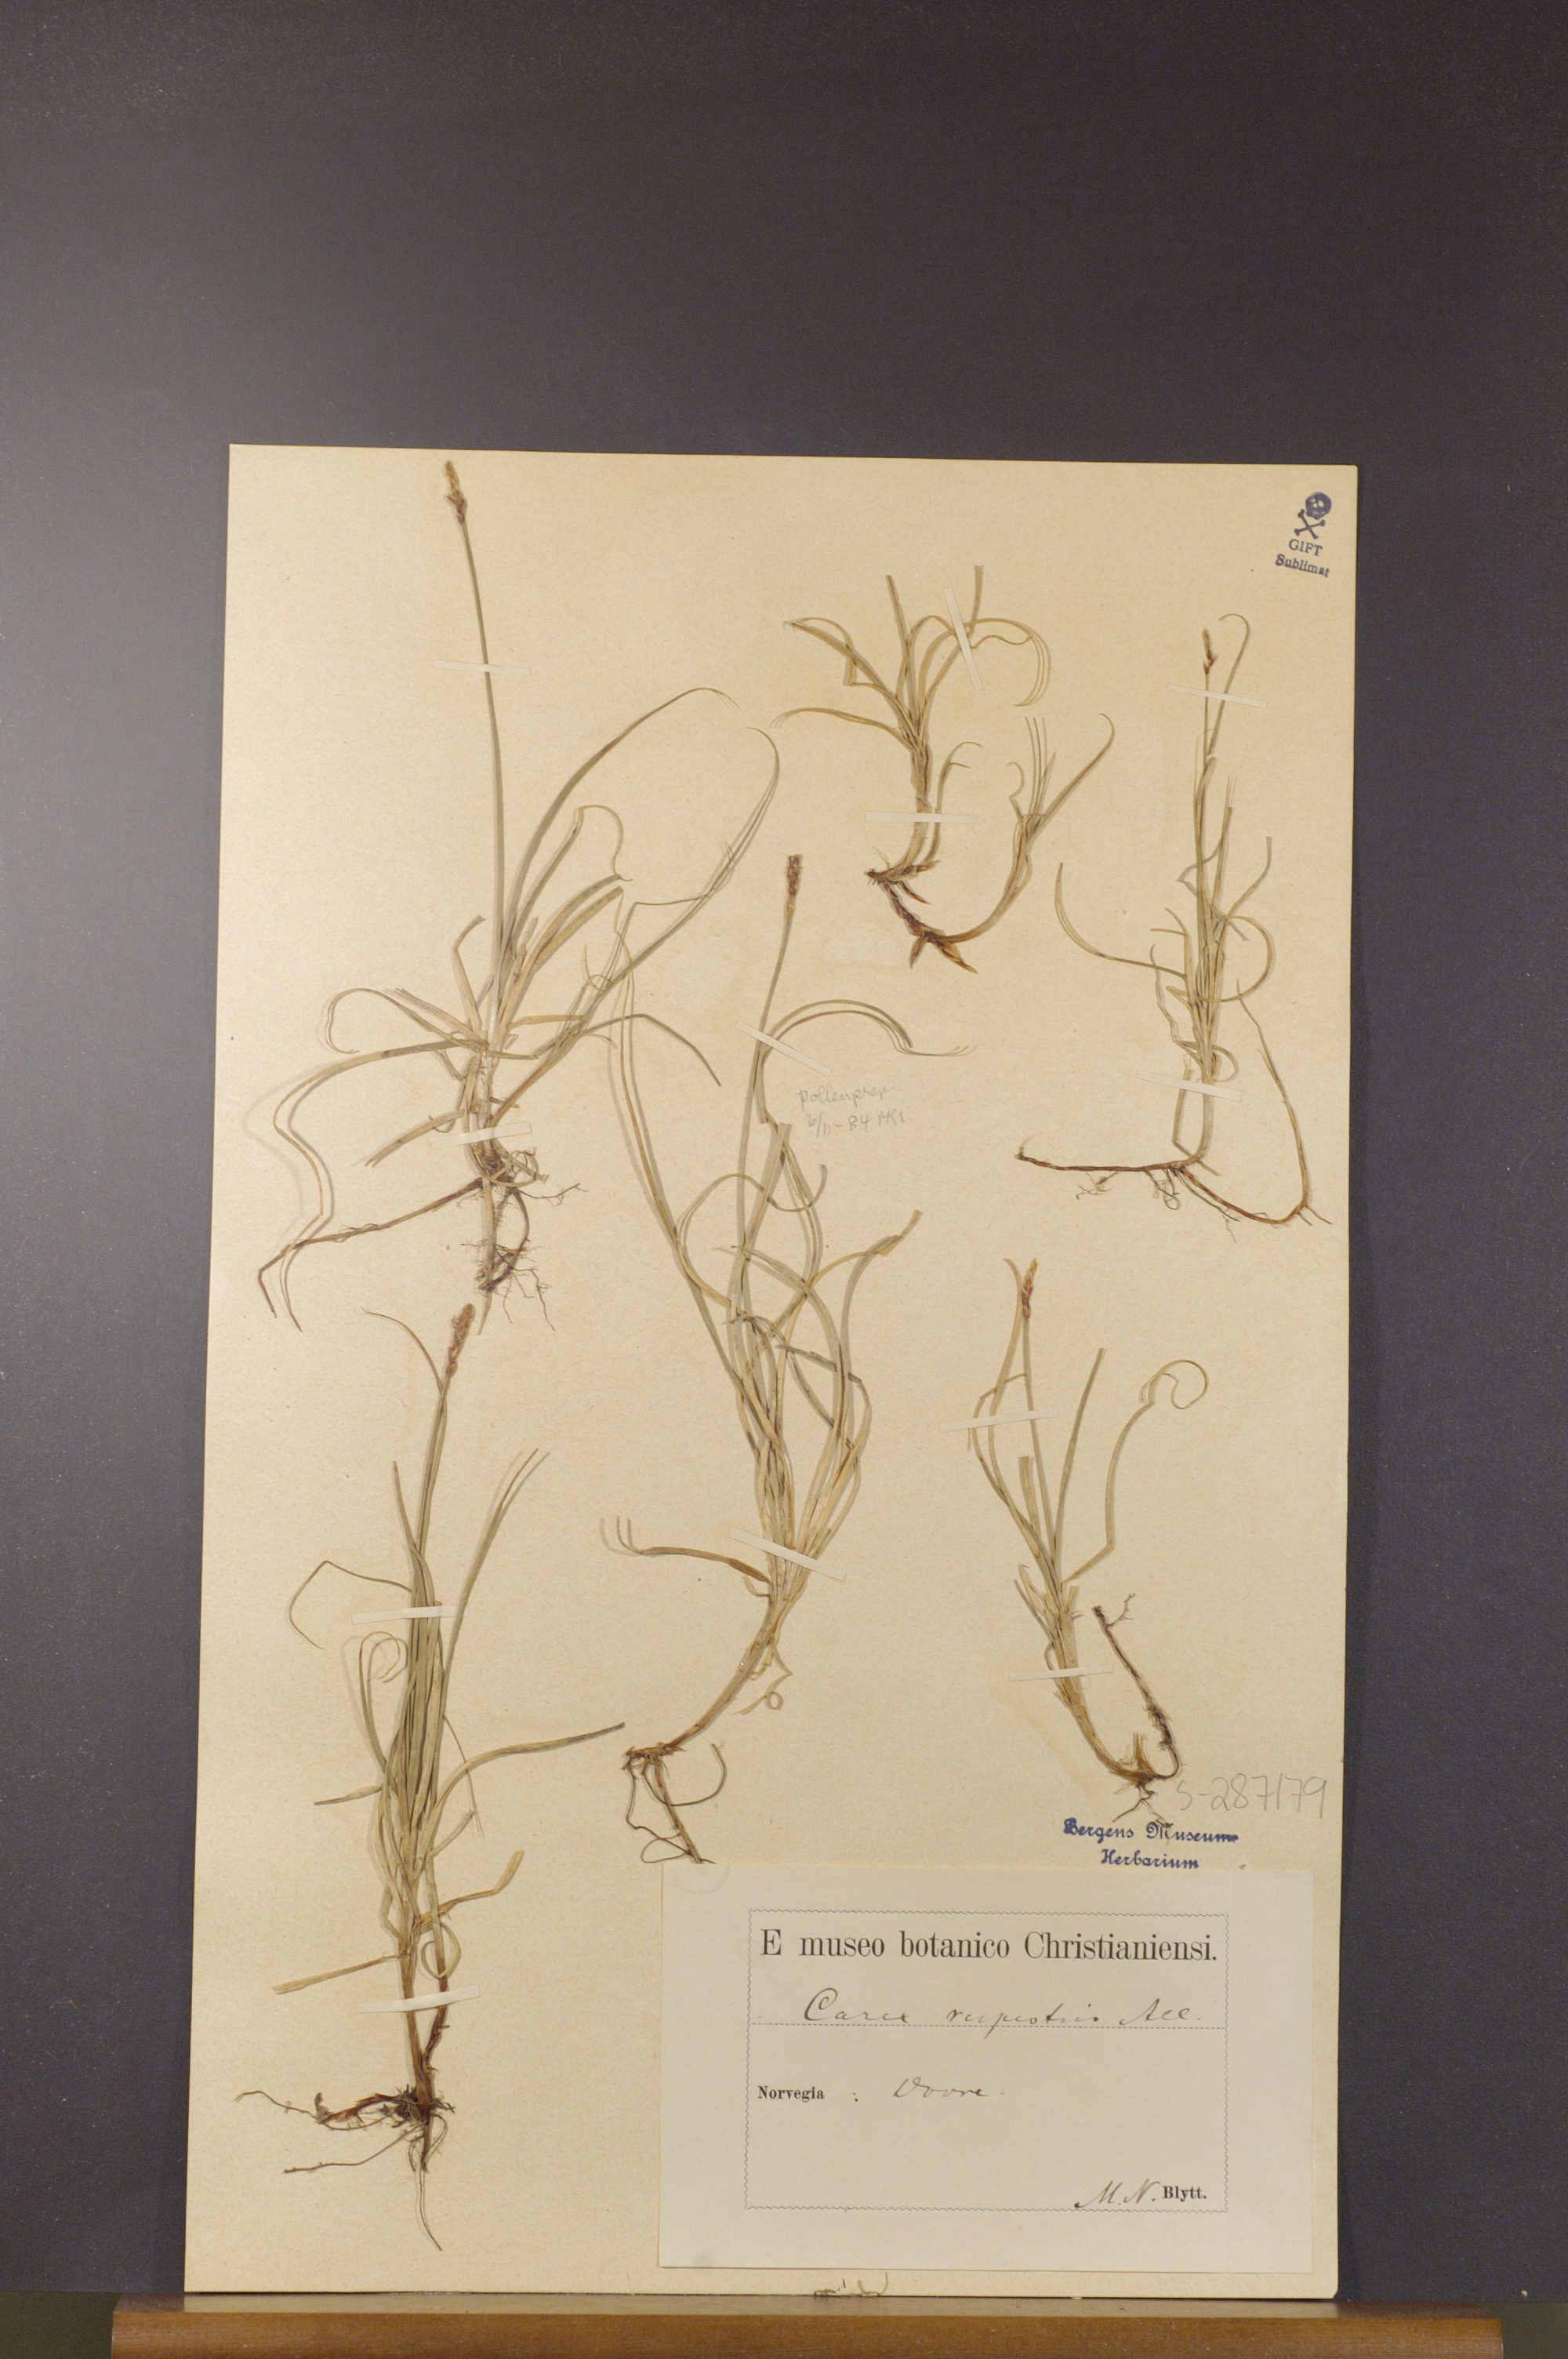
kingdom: Plantae
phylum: Tracheophyta
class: Liliopsida
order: Poales
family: Cyperaceae
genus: Carex
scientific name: Carex rupestris
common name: Rock sedge
